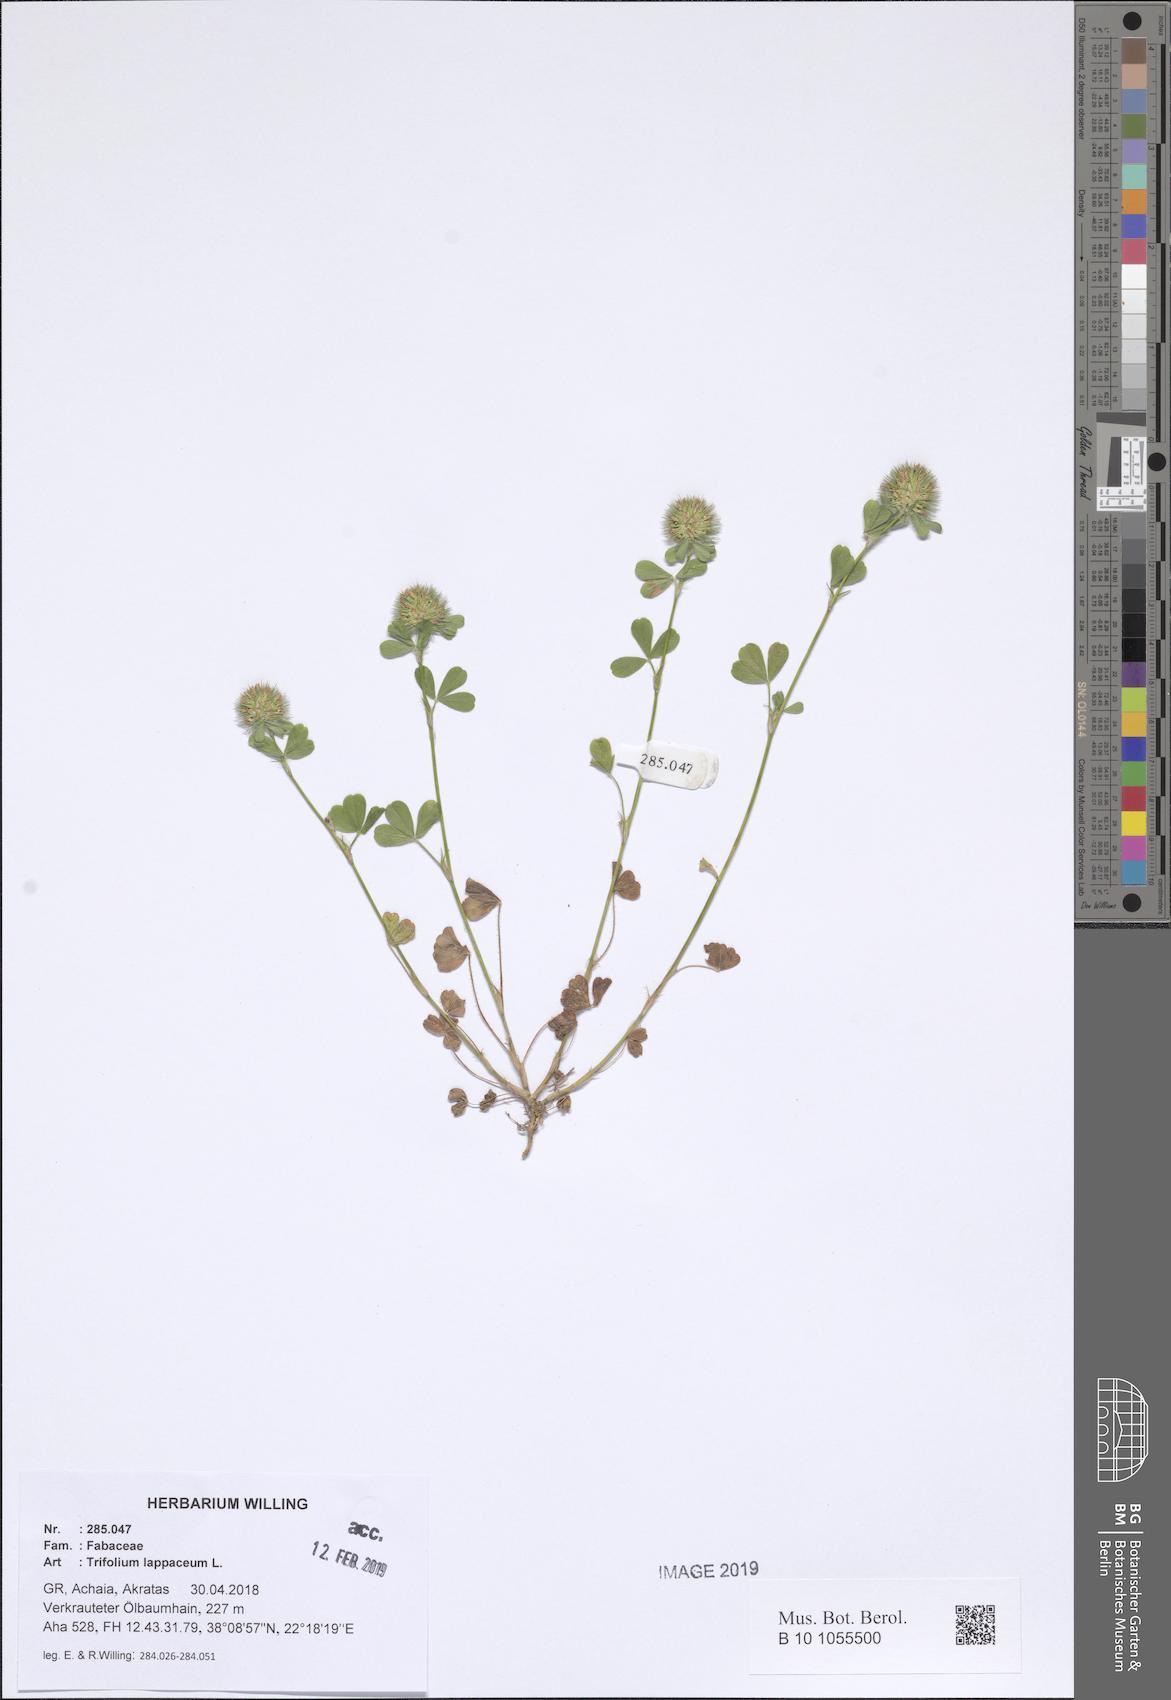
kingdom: Plantae
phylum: Tracheophyta
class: Magnoliopsida
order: Fabales
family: Fabaceae
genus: Trifolium
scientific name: Trifolium lappaceum
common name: Bur clover
